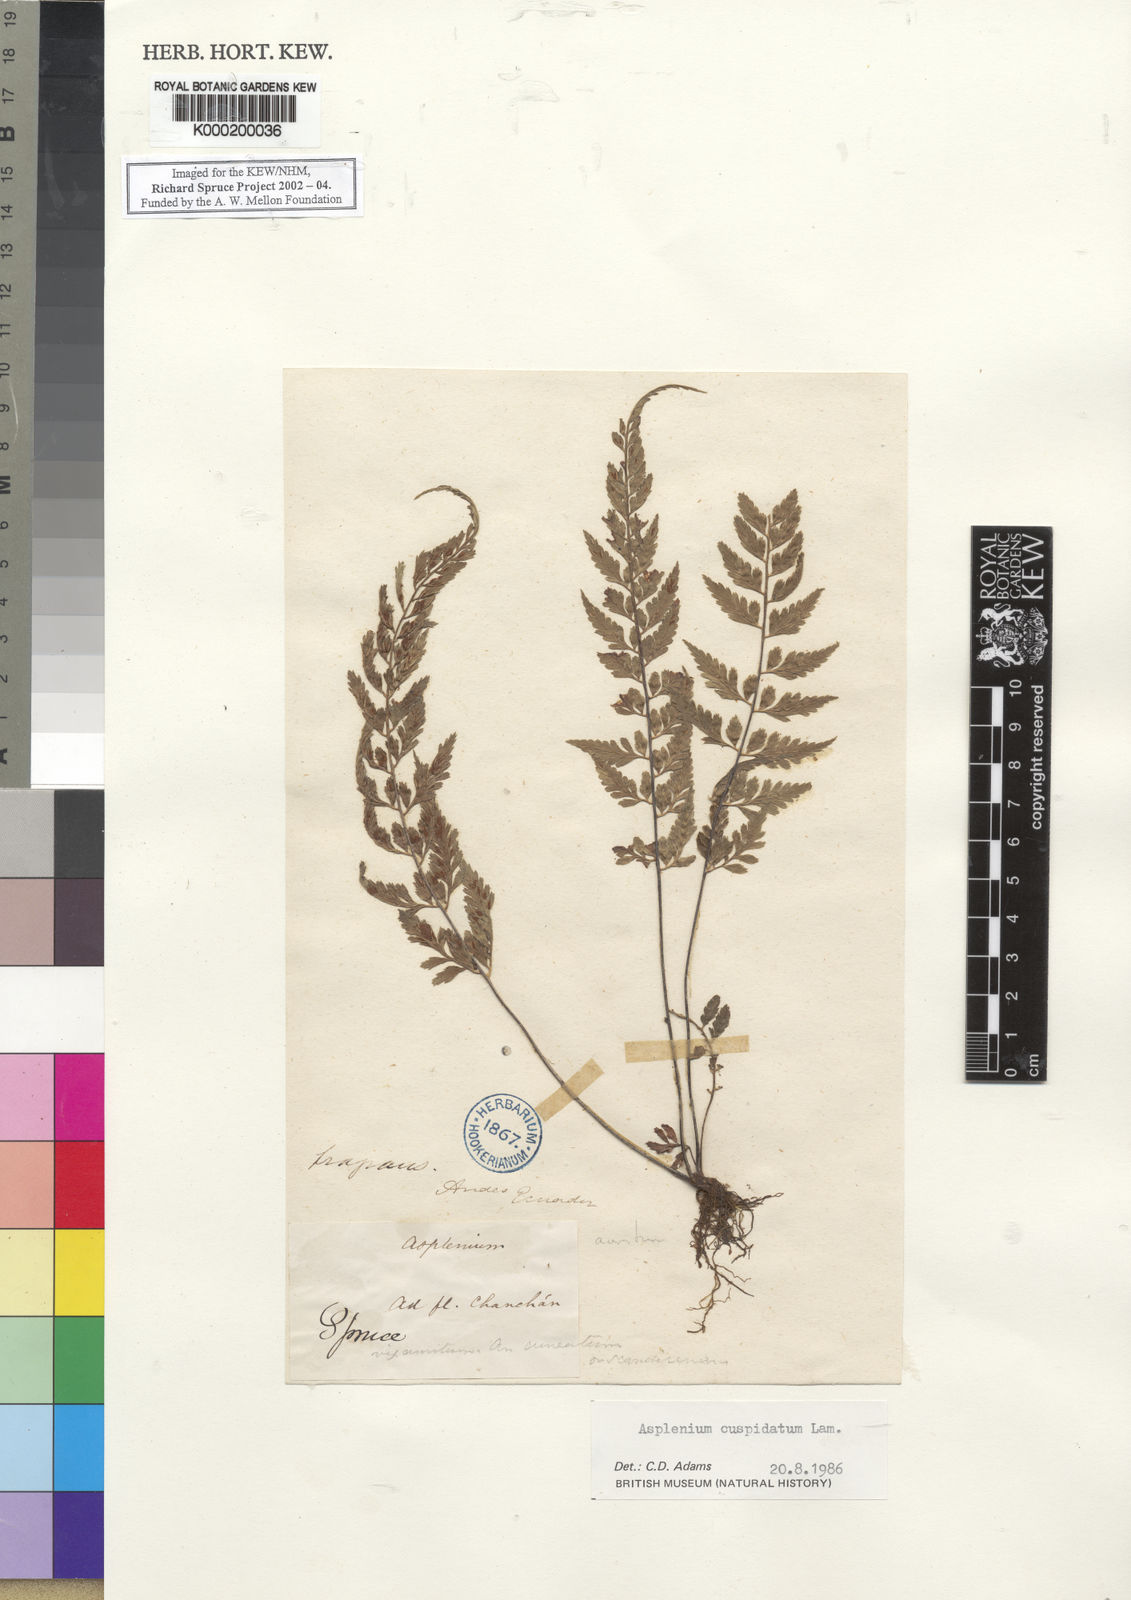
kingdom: Plantae
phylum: Tracheophyta
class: Polypodiopsida
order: Polypodiales
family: Aspleniaceae
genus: Asplenium
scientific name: Asplenium cuspidatum
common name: Eared spleenwort
